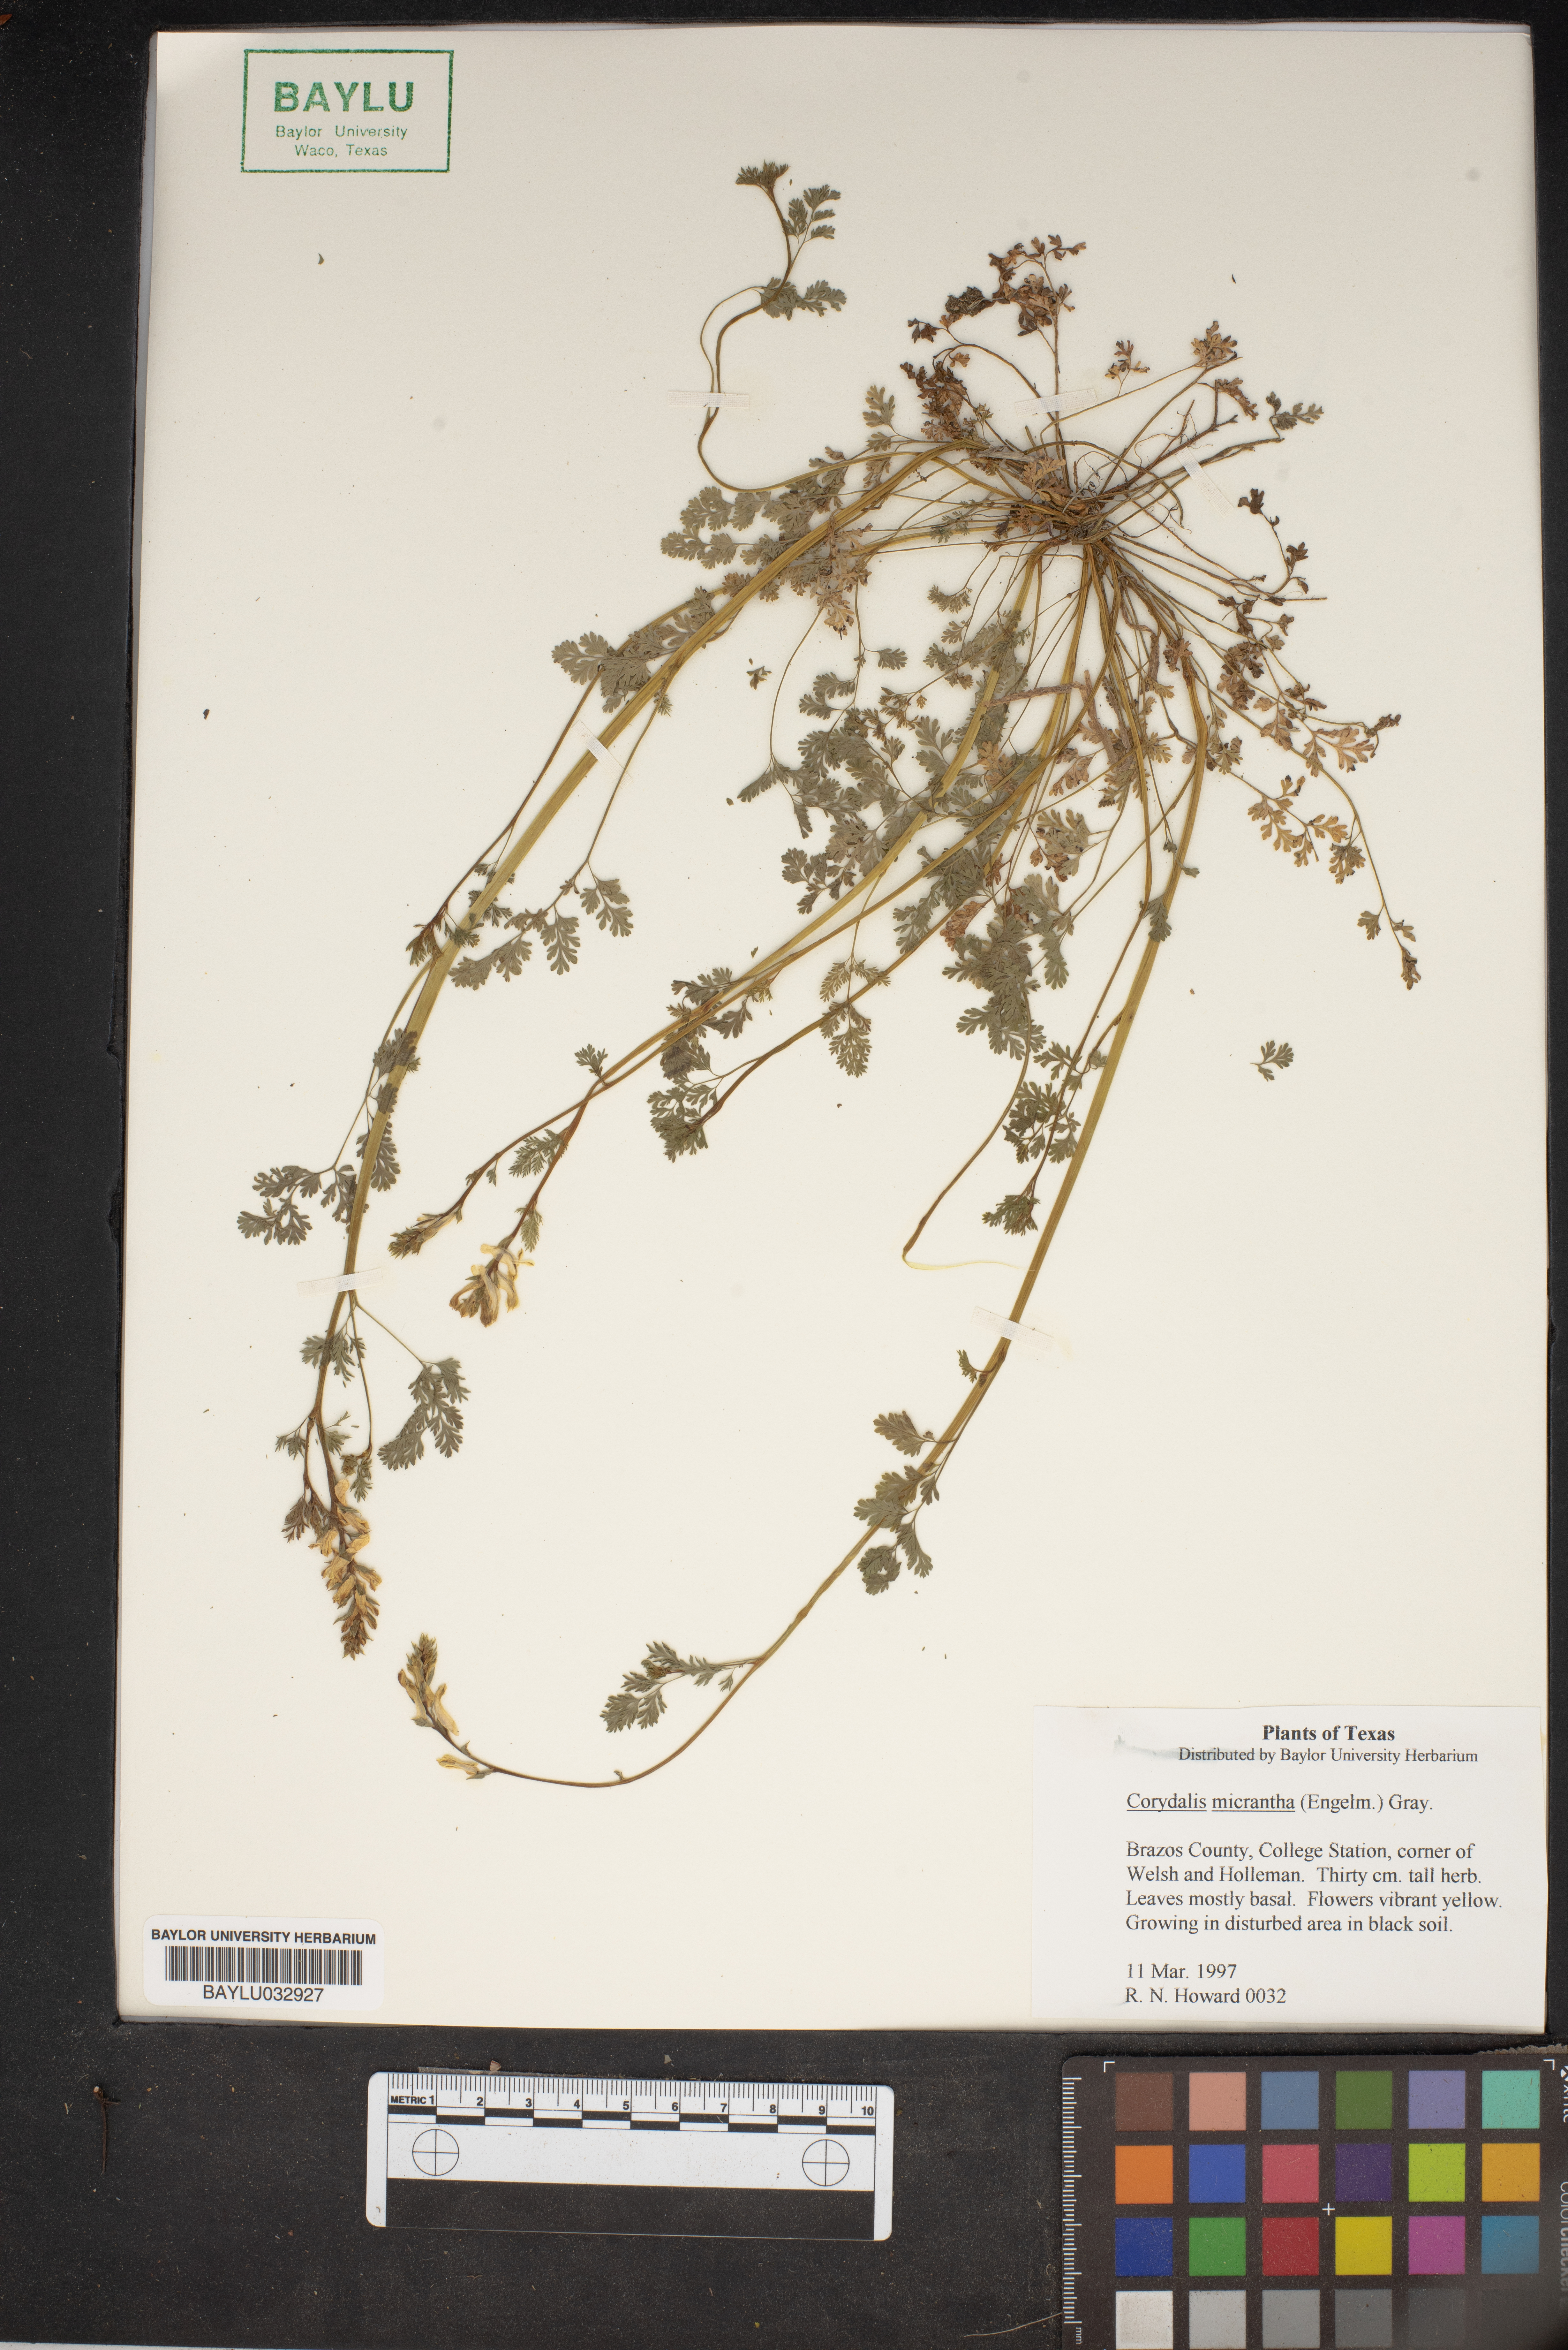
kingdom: Plantae
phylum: Tracheophyta
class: Magnoliopsida
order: Ranunculales
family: Papaveraceae
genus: Corydalis
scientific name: Corydalis micrantha
